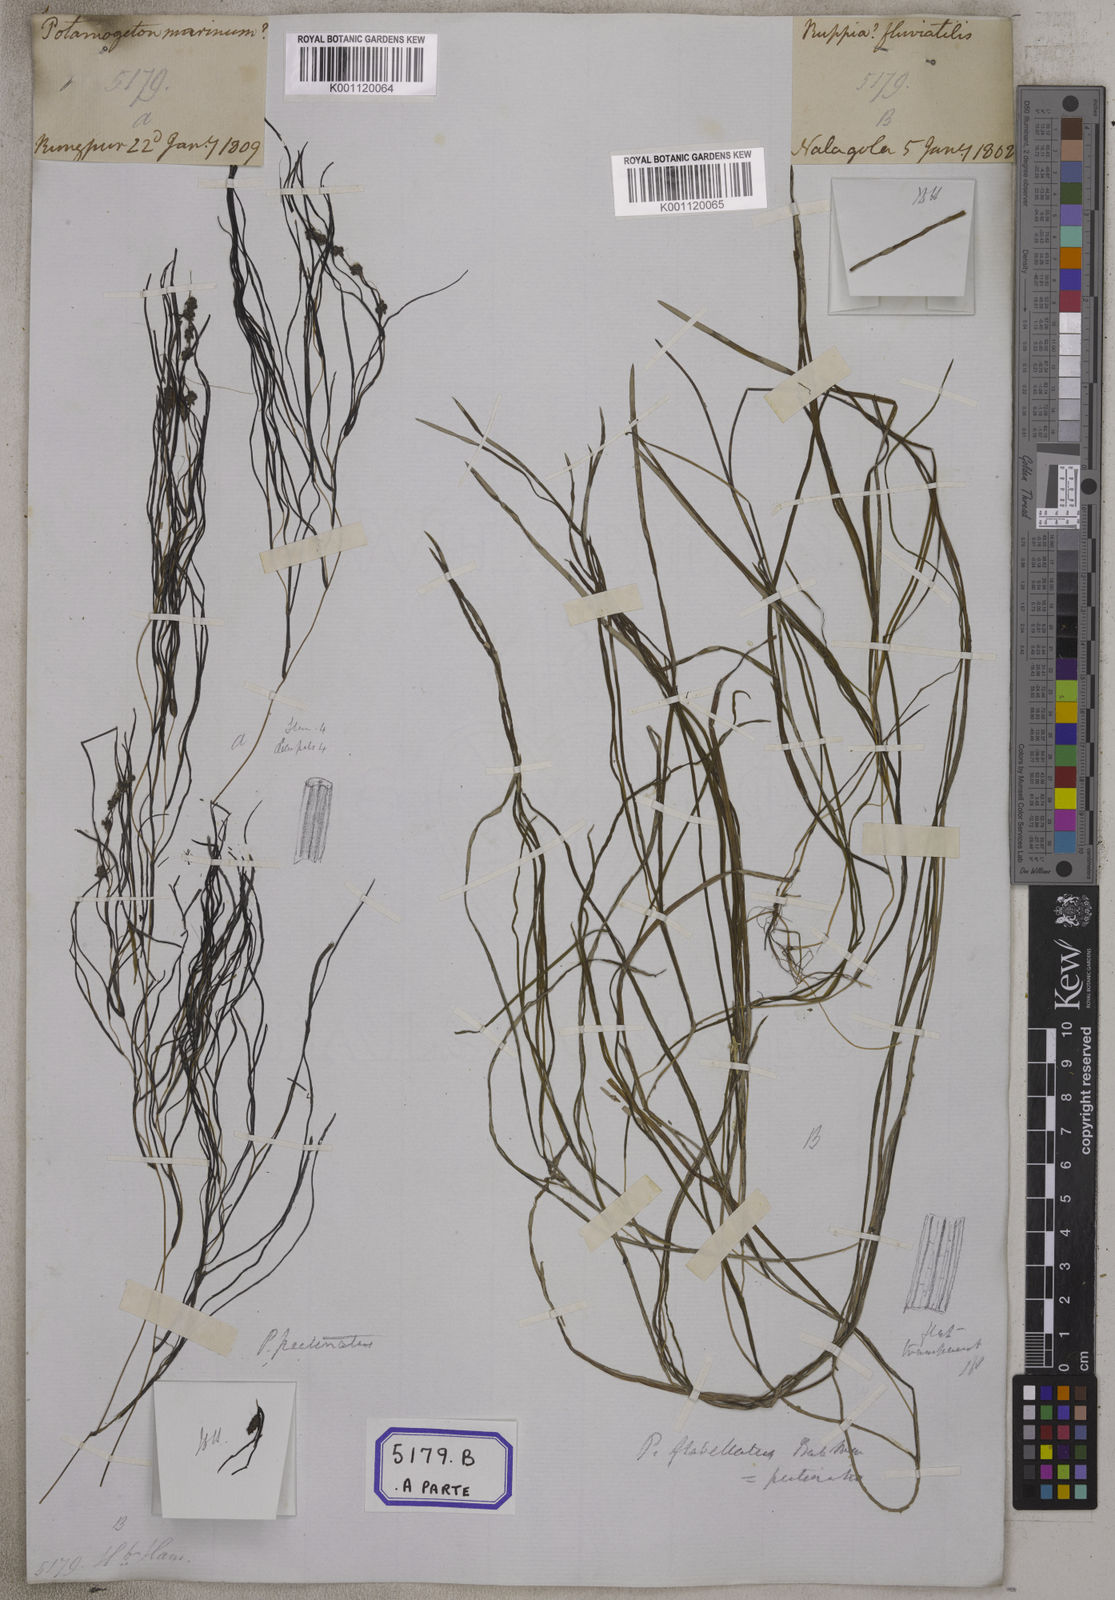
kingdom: Plantae
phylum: Tracheophyta
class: Liliopsida
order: Alismatales
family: Potamogetonaceae
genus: Stuckenia
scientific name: Stuckenia pectinata
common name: Sago pondweed
